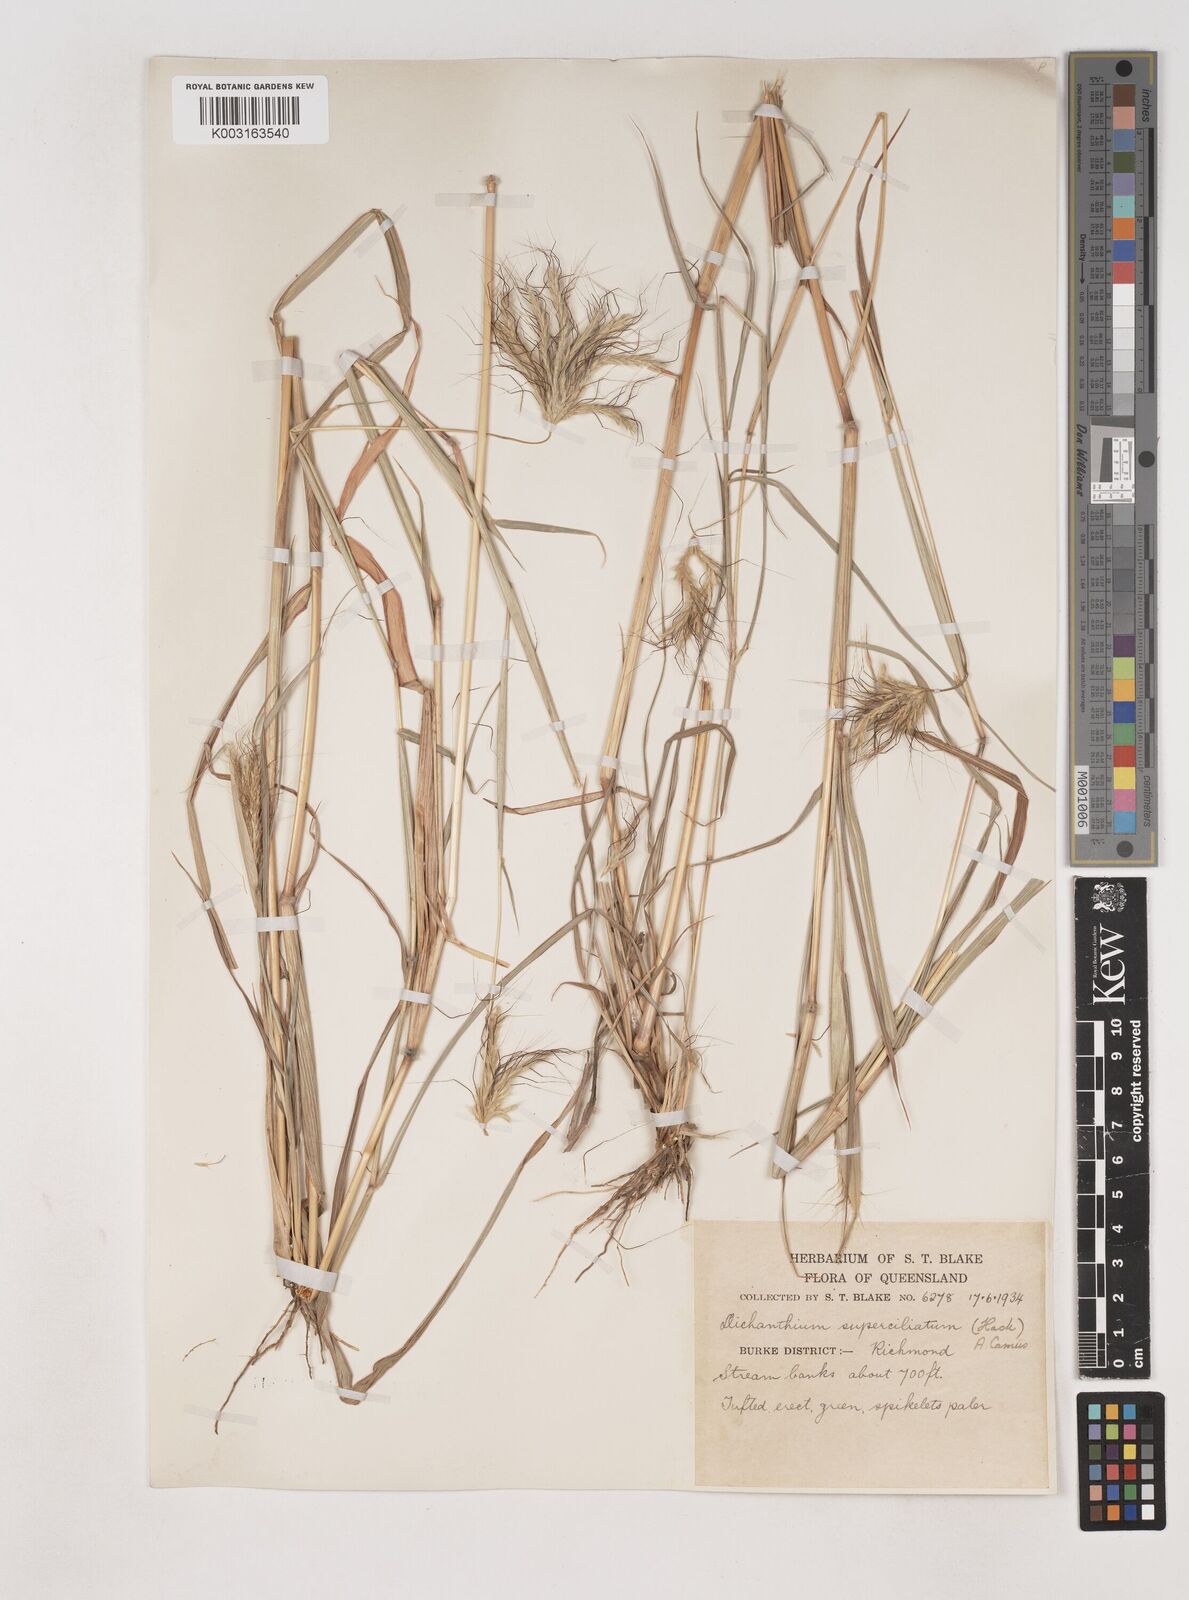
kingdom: Plantae
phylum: Tracheophyta
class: Liliopsida
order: Poales
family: Poaceae
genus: Dichanthium
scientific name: Dichanthium sericeum
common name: Silky bluestem
